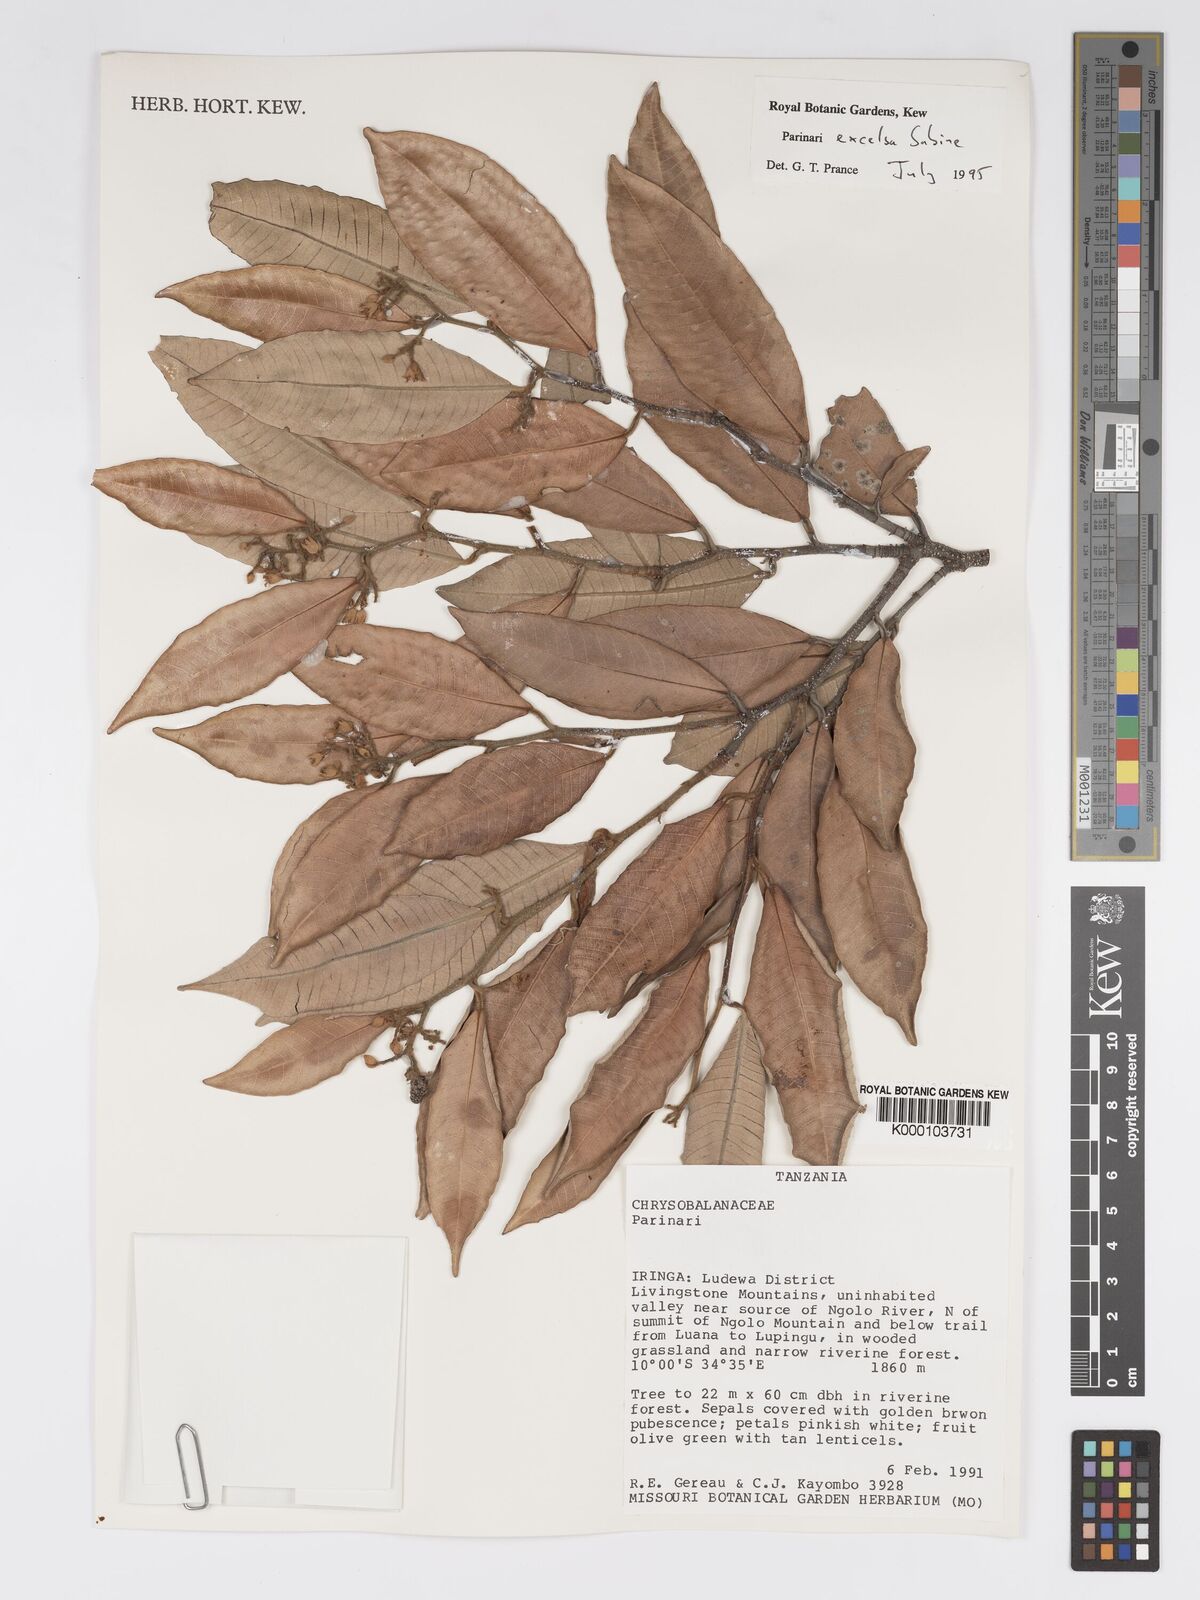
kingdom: Plantae
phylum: Tracheophyta
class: Magnoliopsida
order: Malpighiales
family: Chrysobalanaceae
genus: Parinari
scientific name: Parinari excelsa
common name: Guinea-plum
